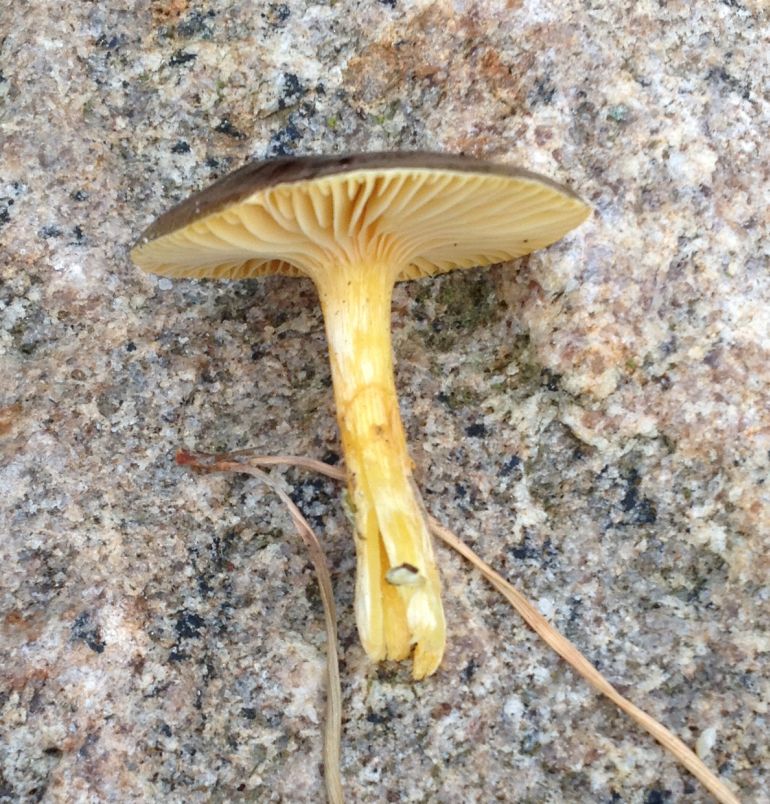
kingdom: Fungi
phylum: Basidiomycota
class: Agaricomycetes
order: Agaricales
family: Hygrophoraceae
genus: Hygrophorus
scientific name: Hygrophorus hypothejus
